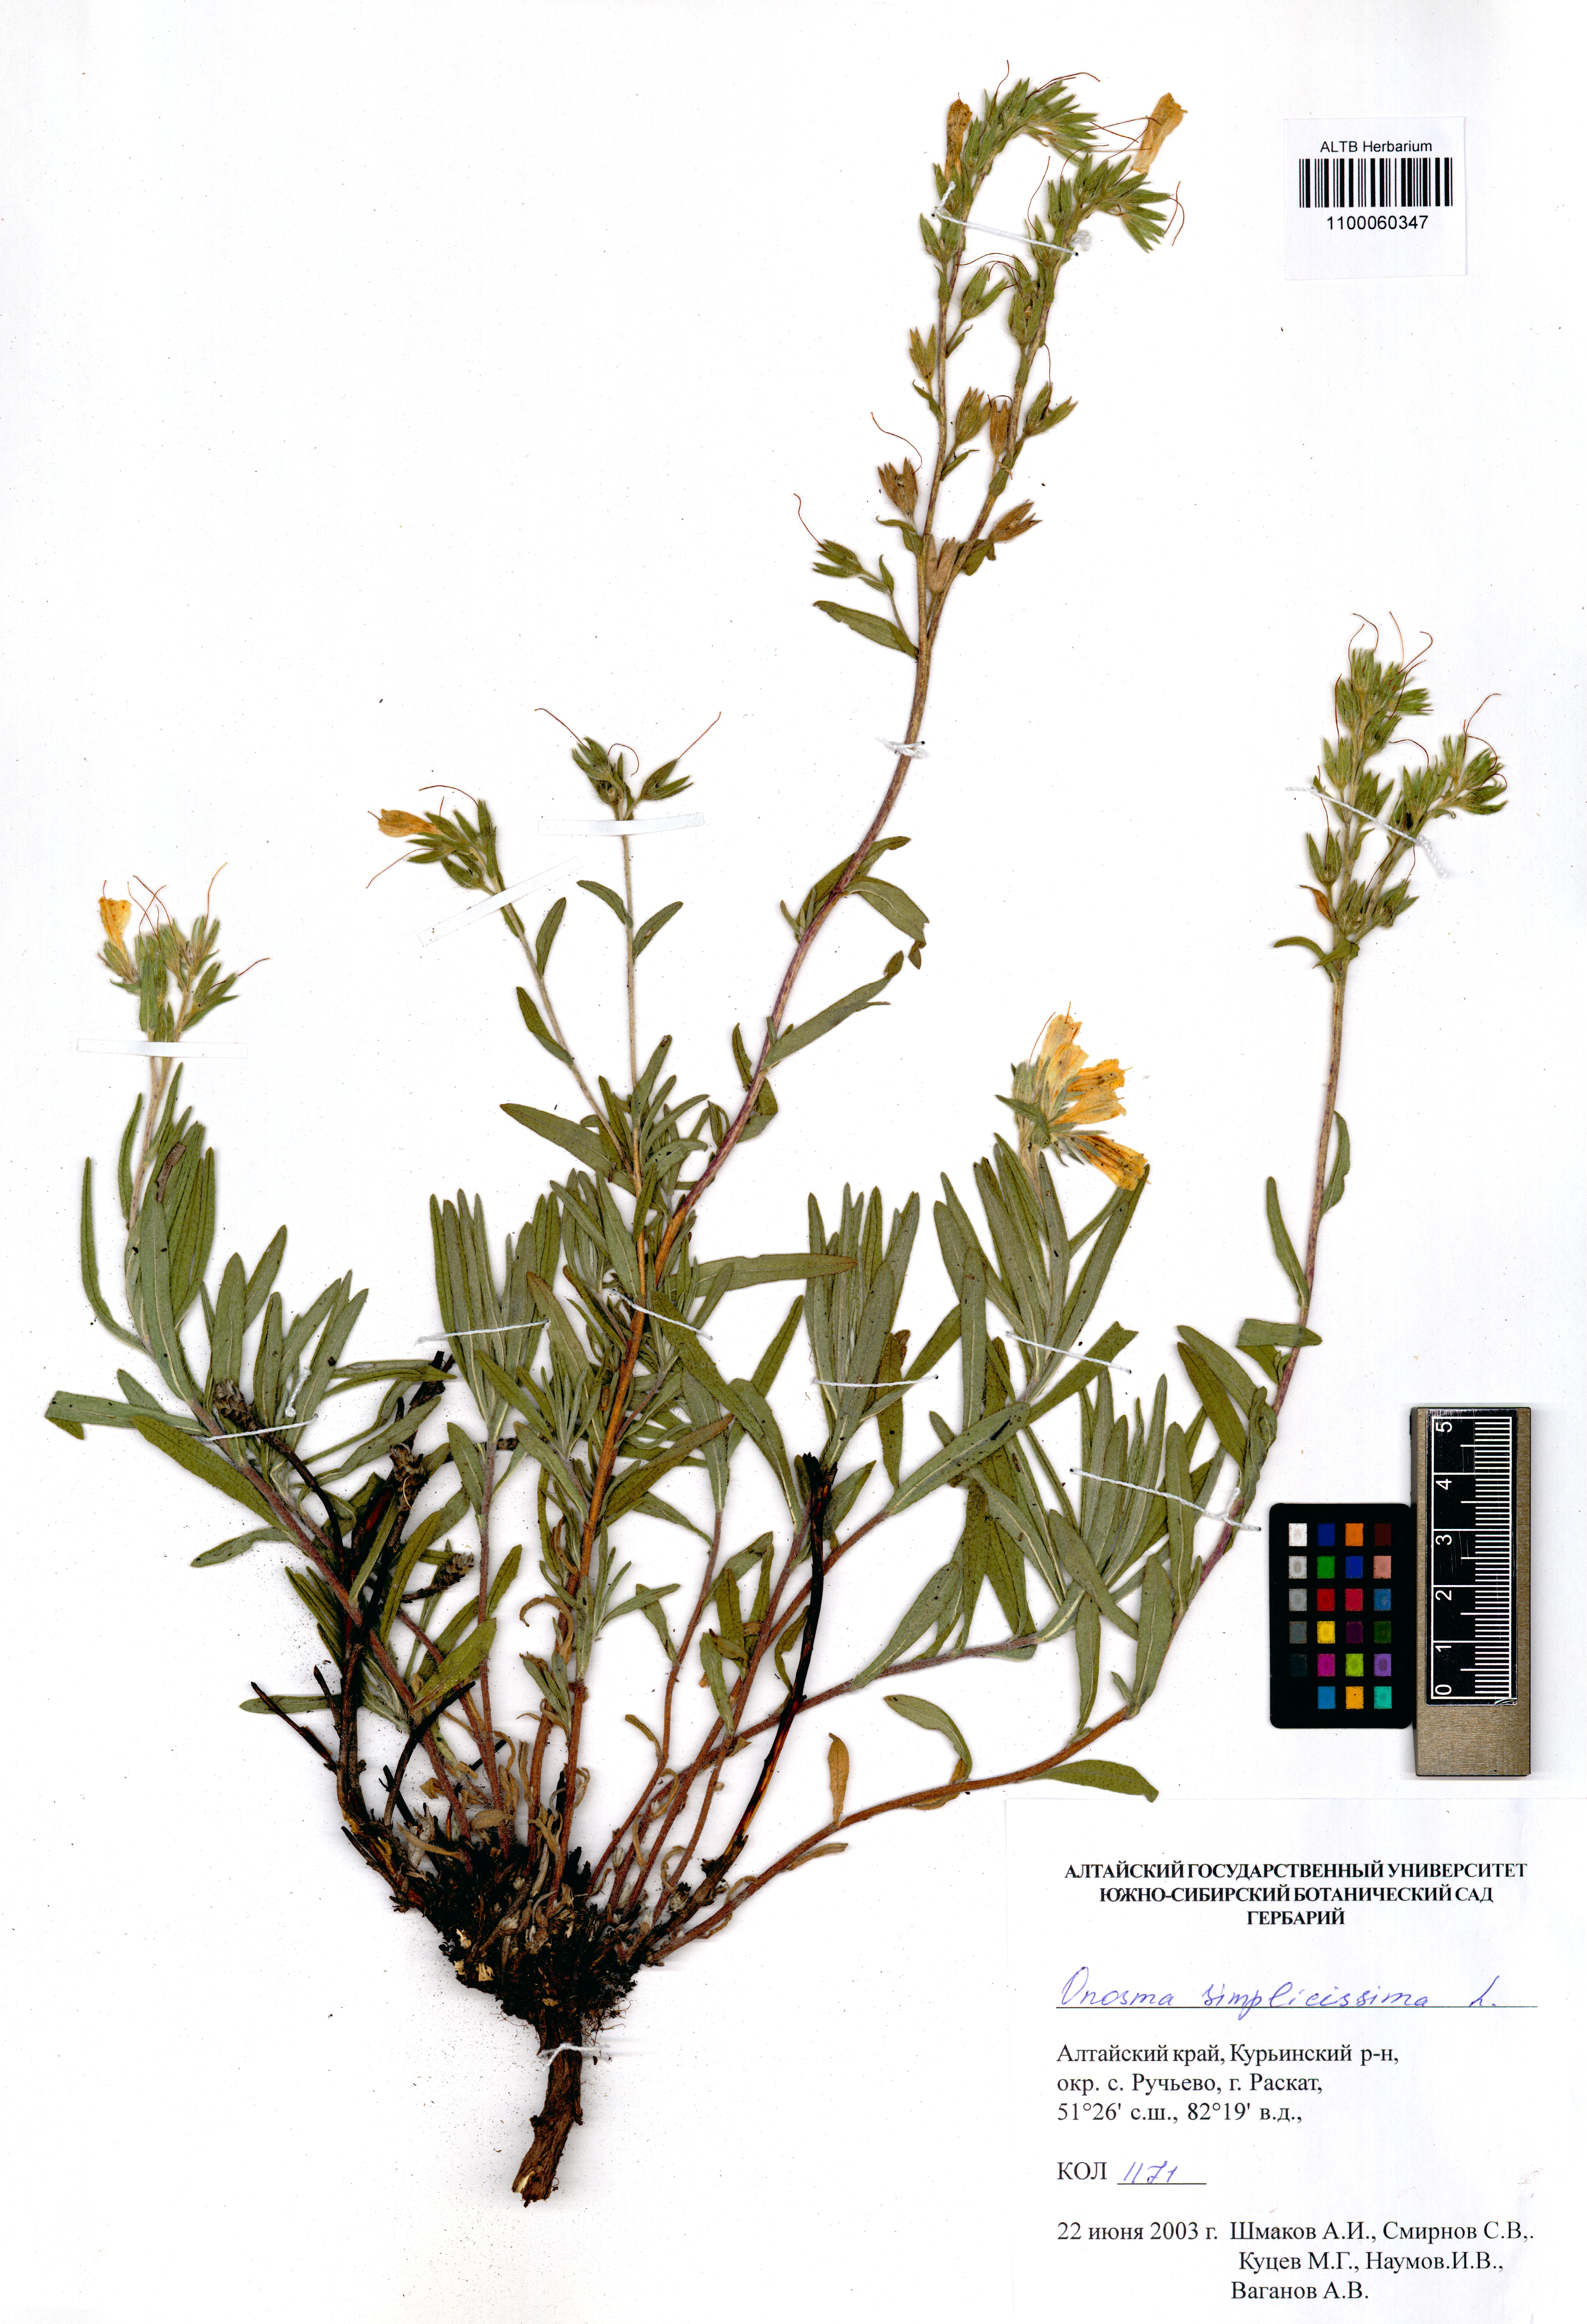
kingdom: Plantae
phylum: Tracheophyta
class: Magnoliopsida
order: Boraginales
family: Boraginaceae
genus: Onosma
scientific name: Onosma simplicissima
